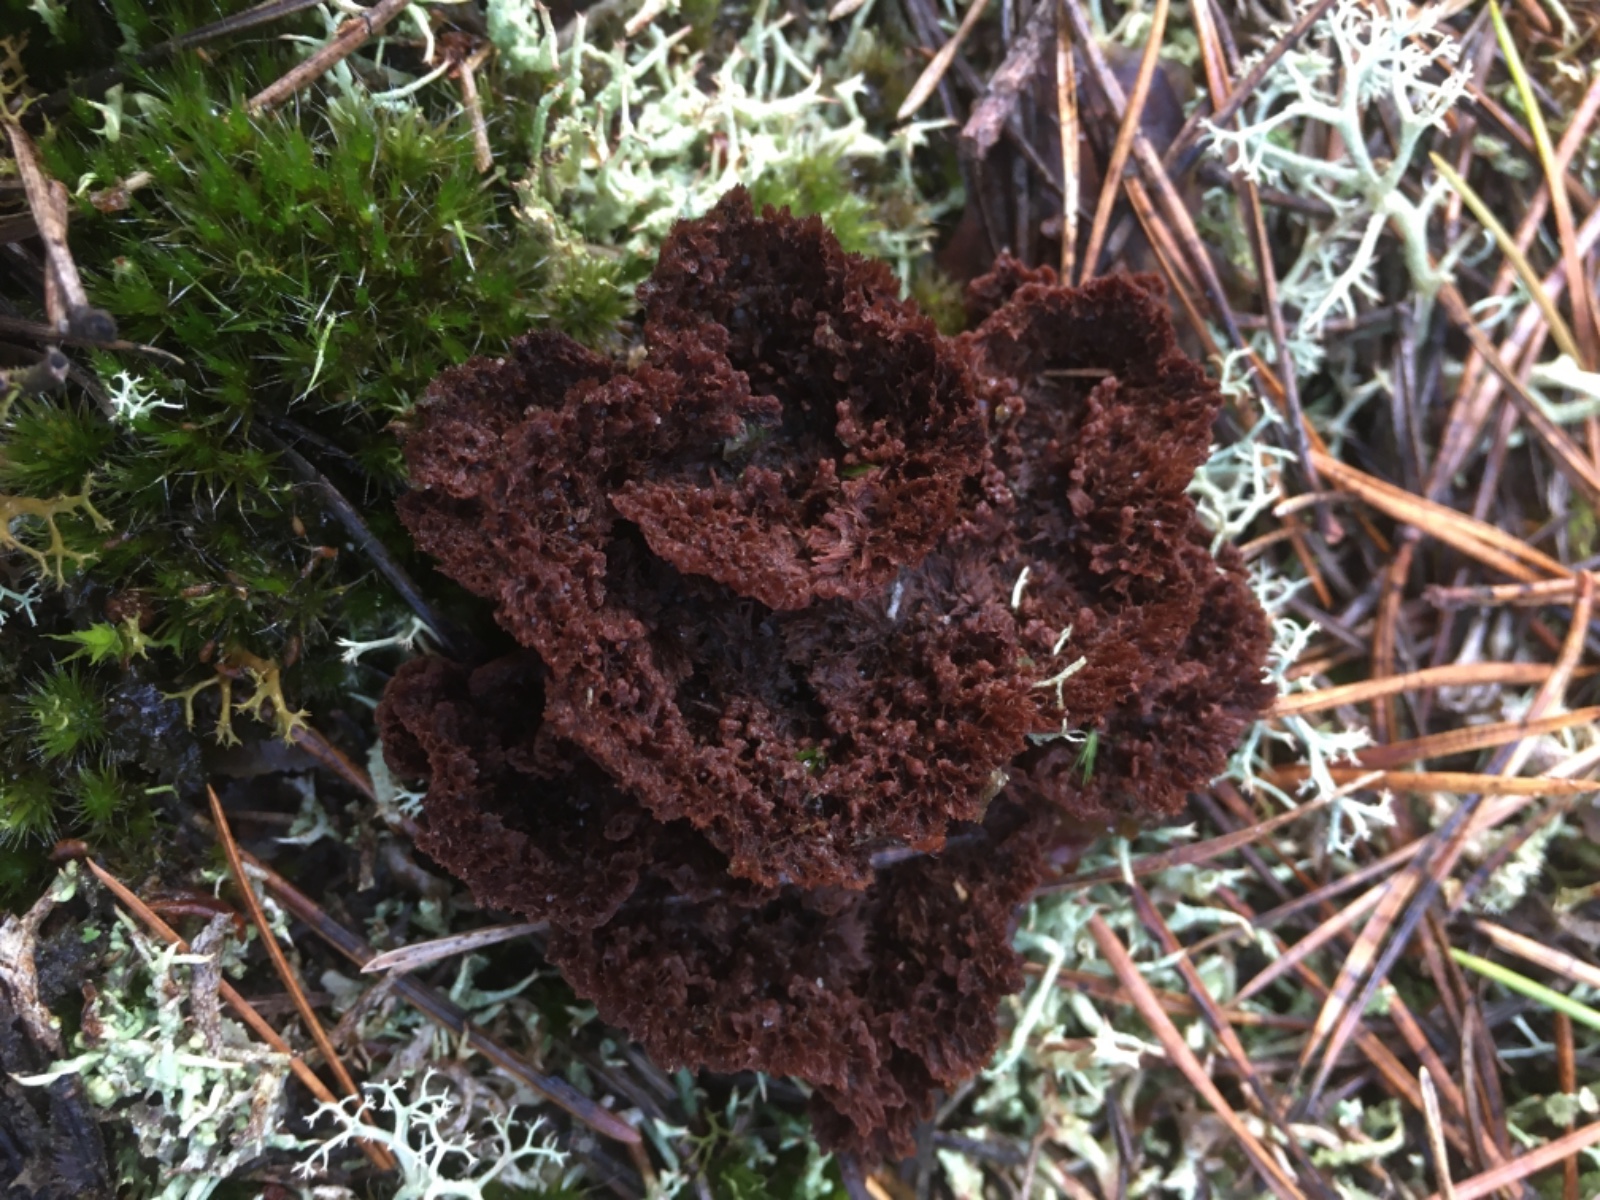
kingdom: Fungi
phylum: Basidiomycota
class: Agaricomycetes
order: Thelephorales
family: Thelephoraceae
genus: Thelephora
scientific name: Thelephora terrestris
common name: fliget frynsesvamp
